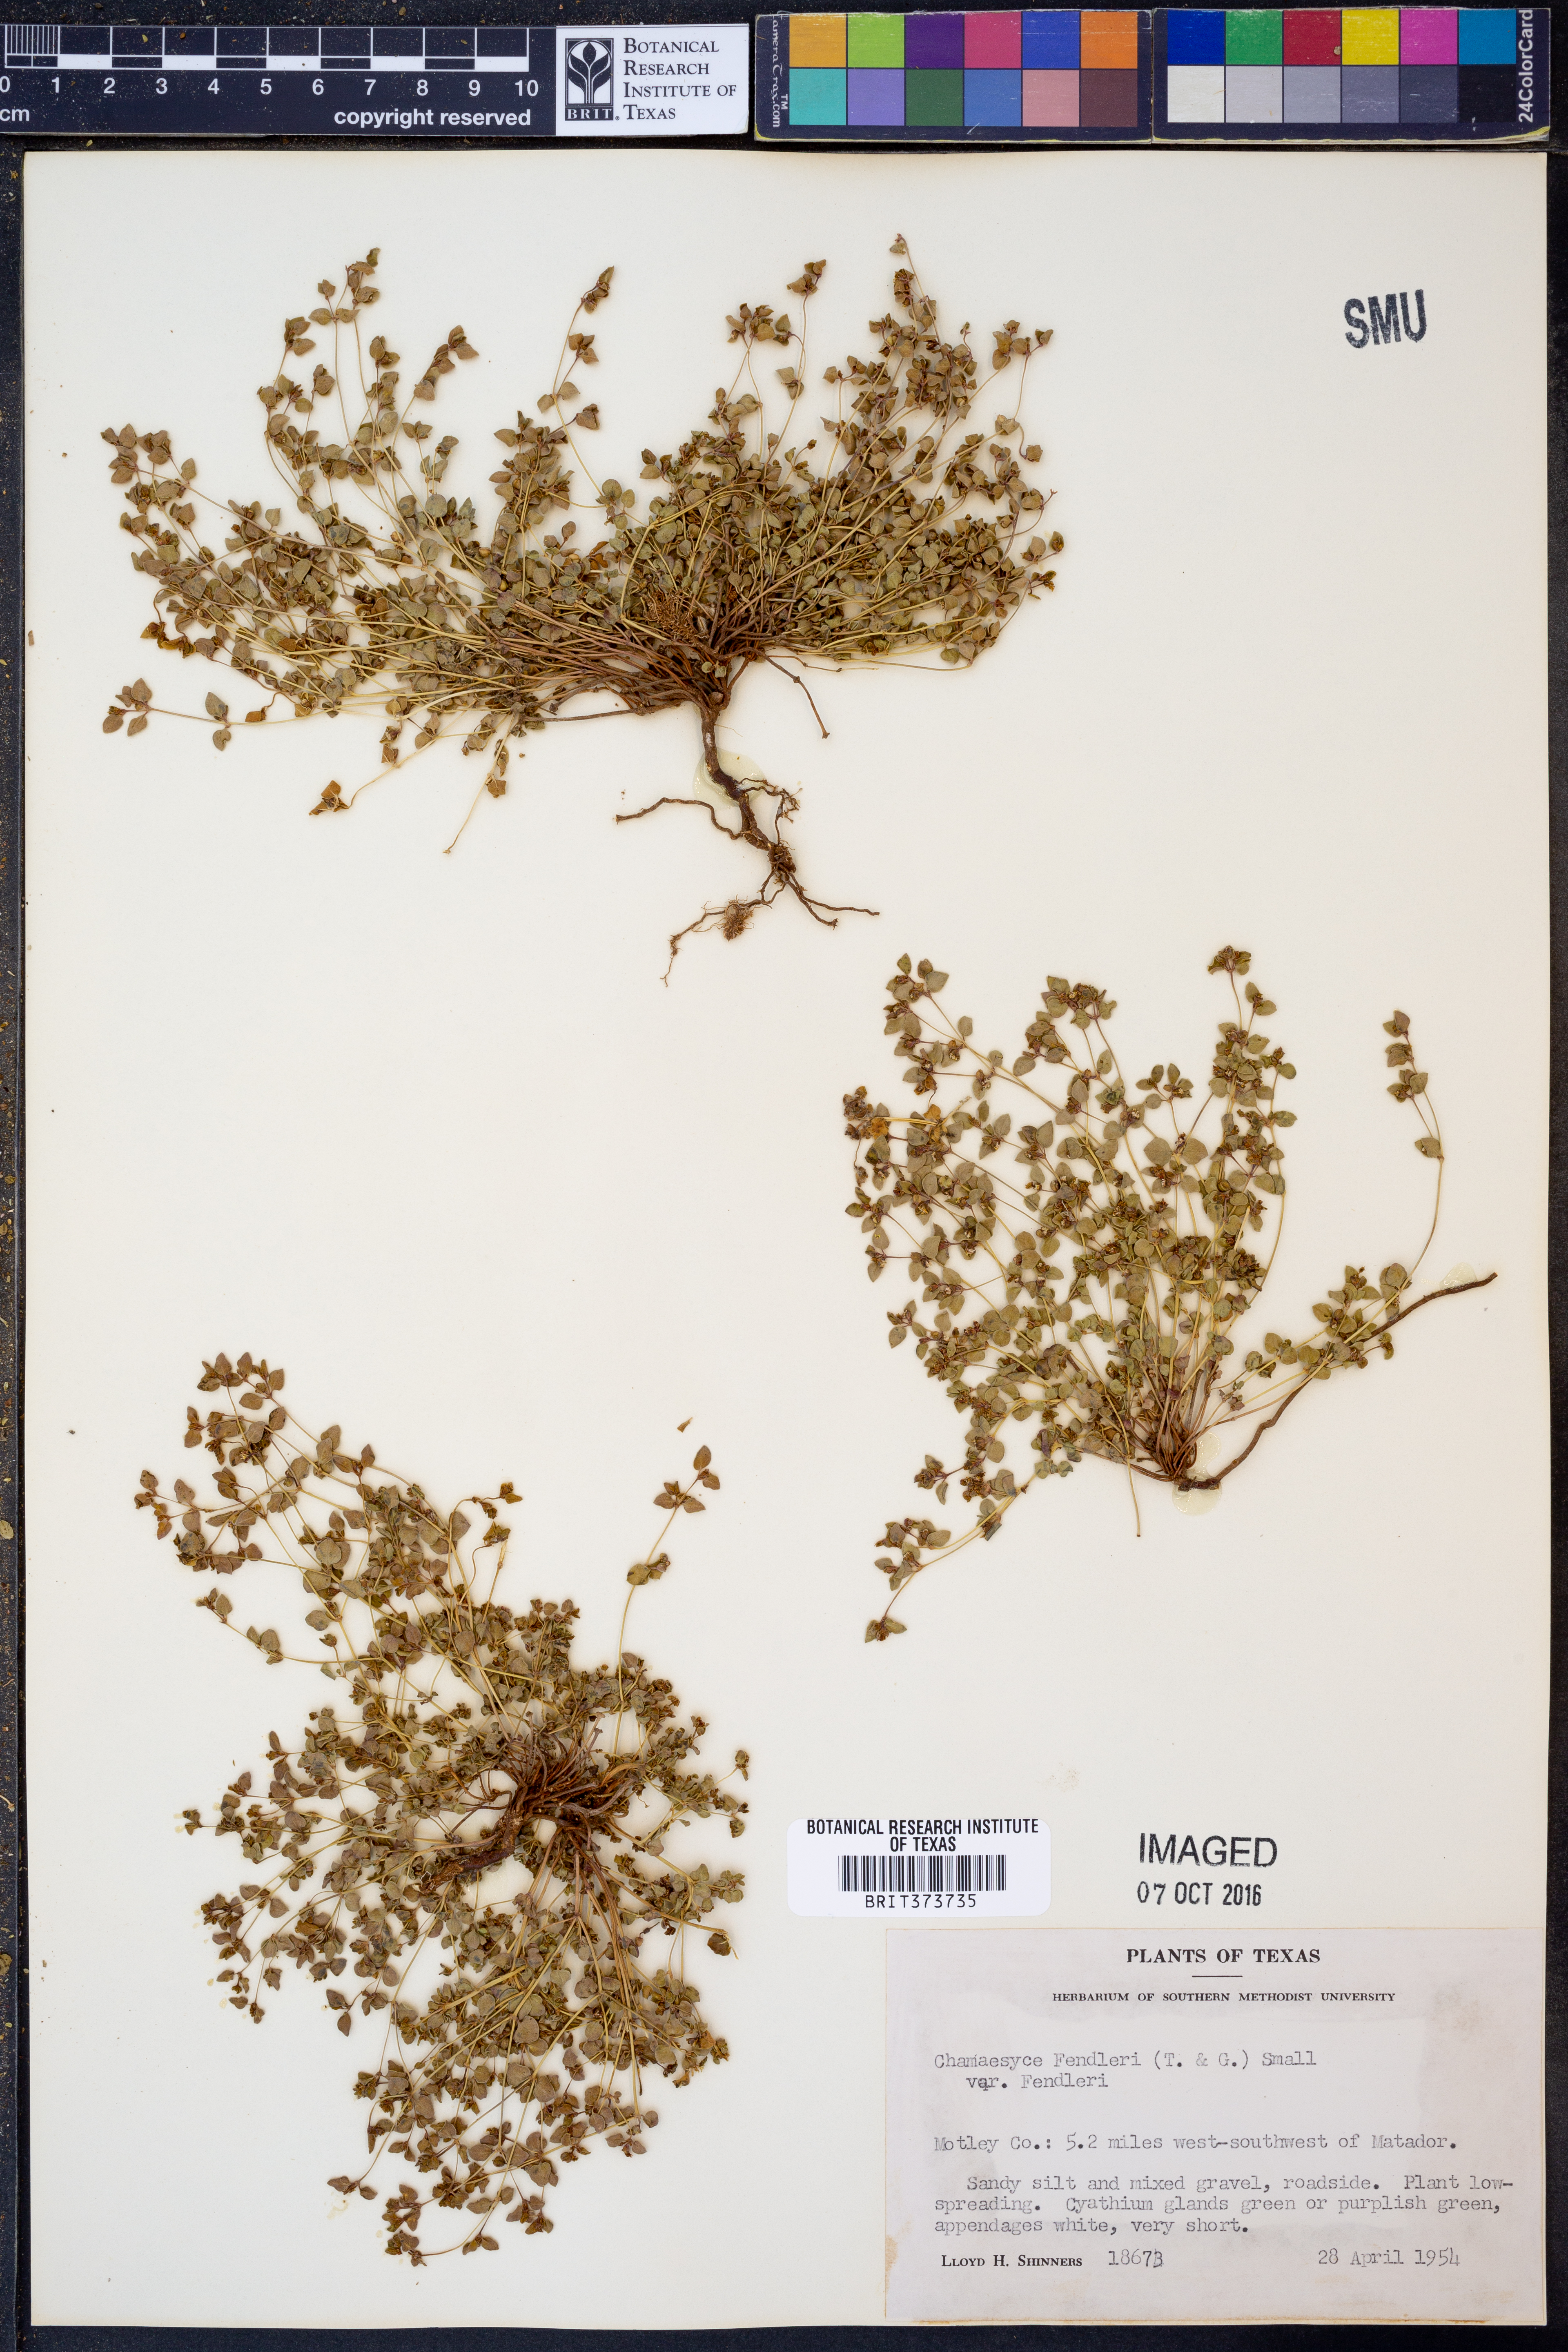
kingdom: Plantae
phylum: Tracheophyta
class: Magnoliopsida
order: Malpighiales
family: Euphorbiaceae
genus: Euphorbia
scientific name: Euphorbia fendleri
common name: Fendler's euphorbia
